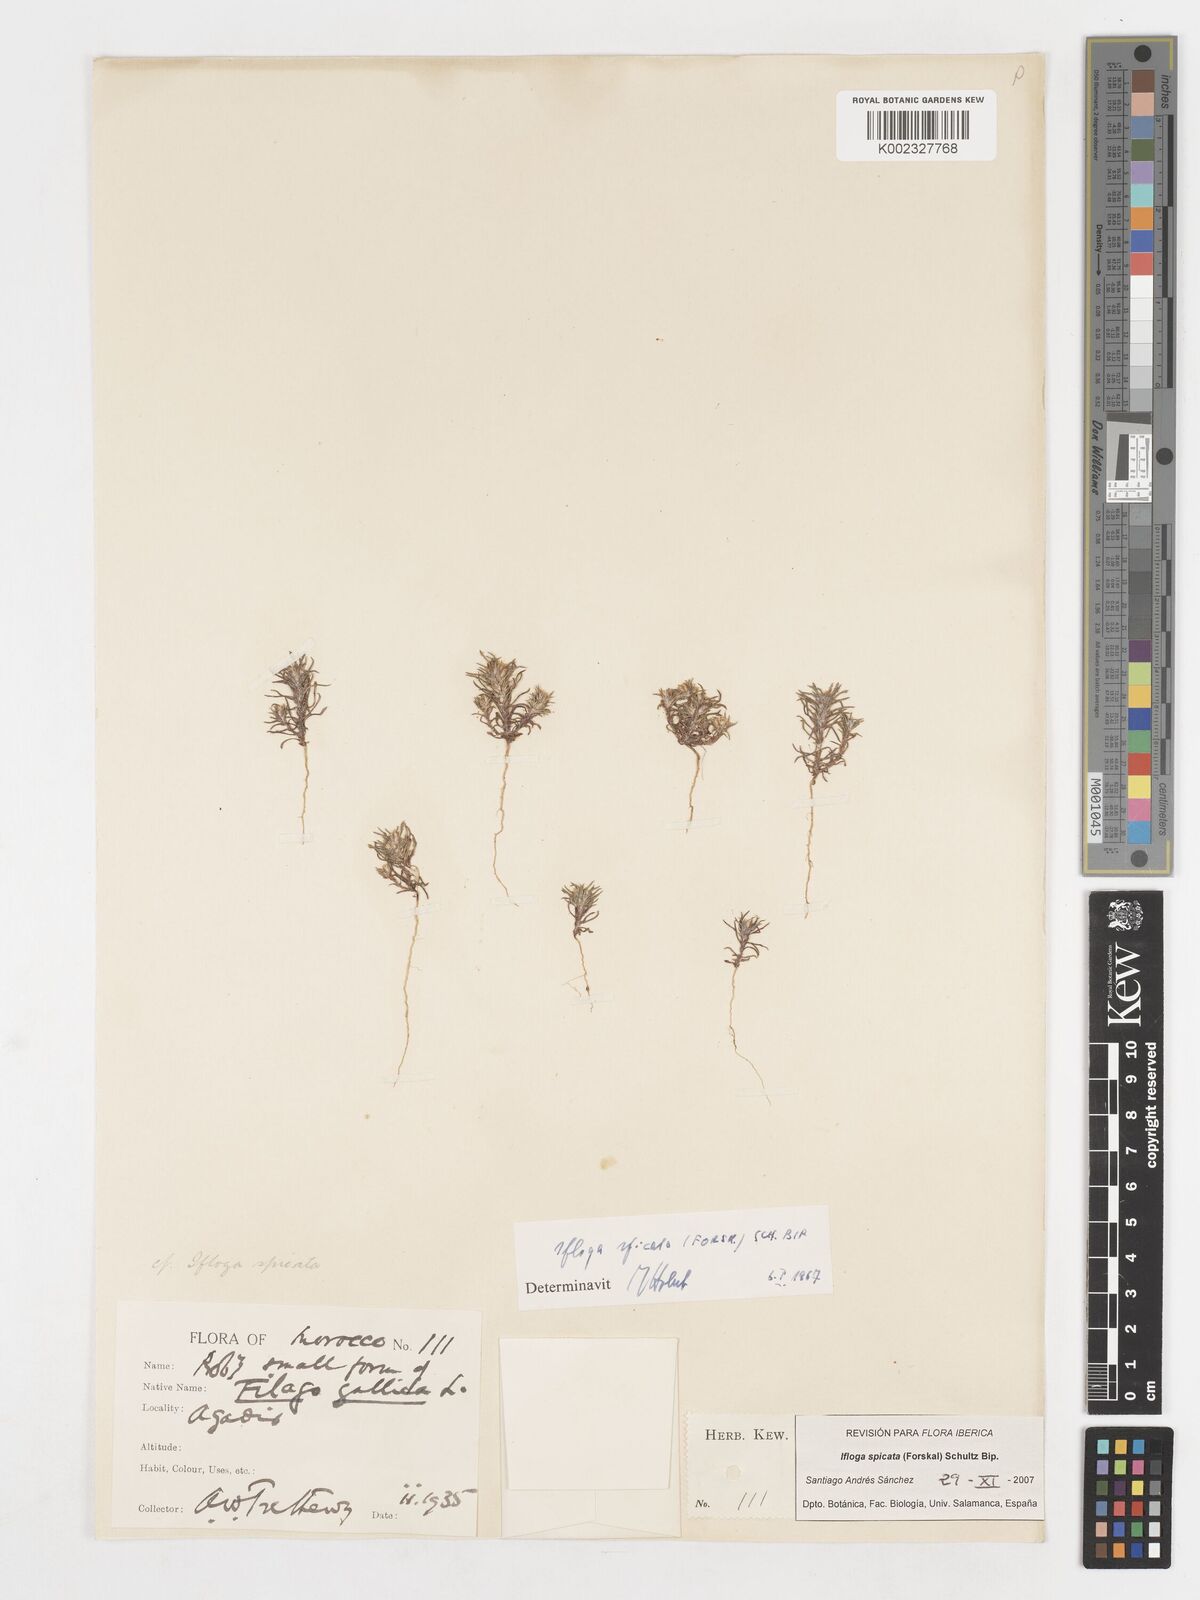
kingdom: Plantae
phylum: Tracheophyta
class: Magnoliopsida
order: Asterales
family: Asteraceae
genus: Ifloga
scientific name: Ifloga spicata
